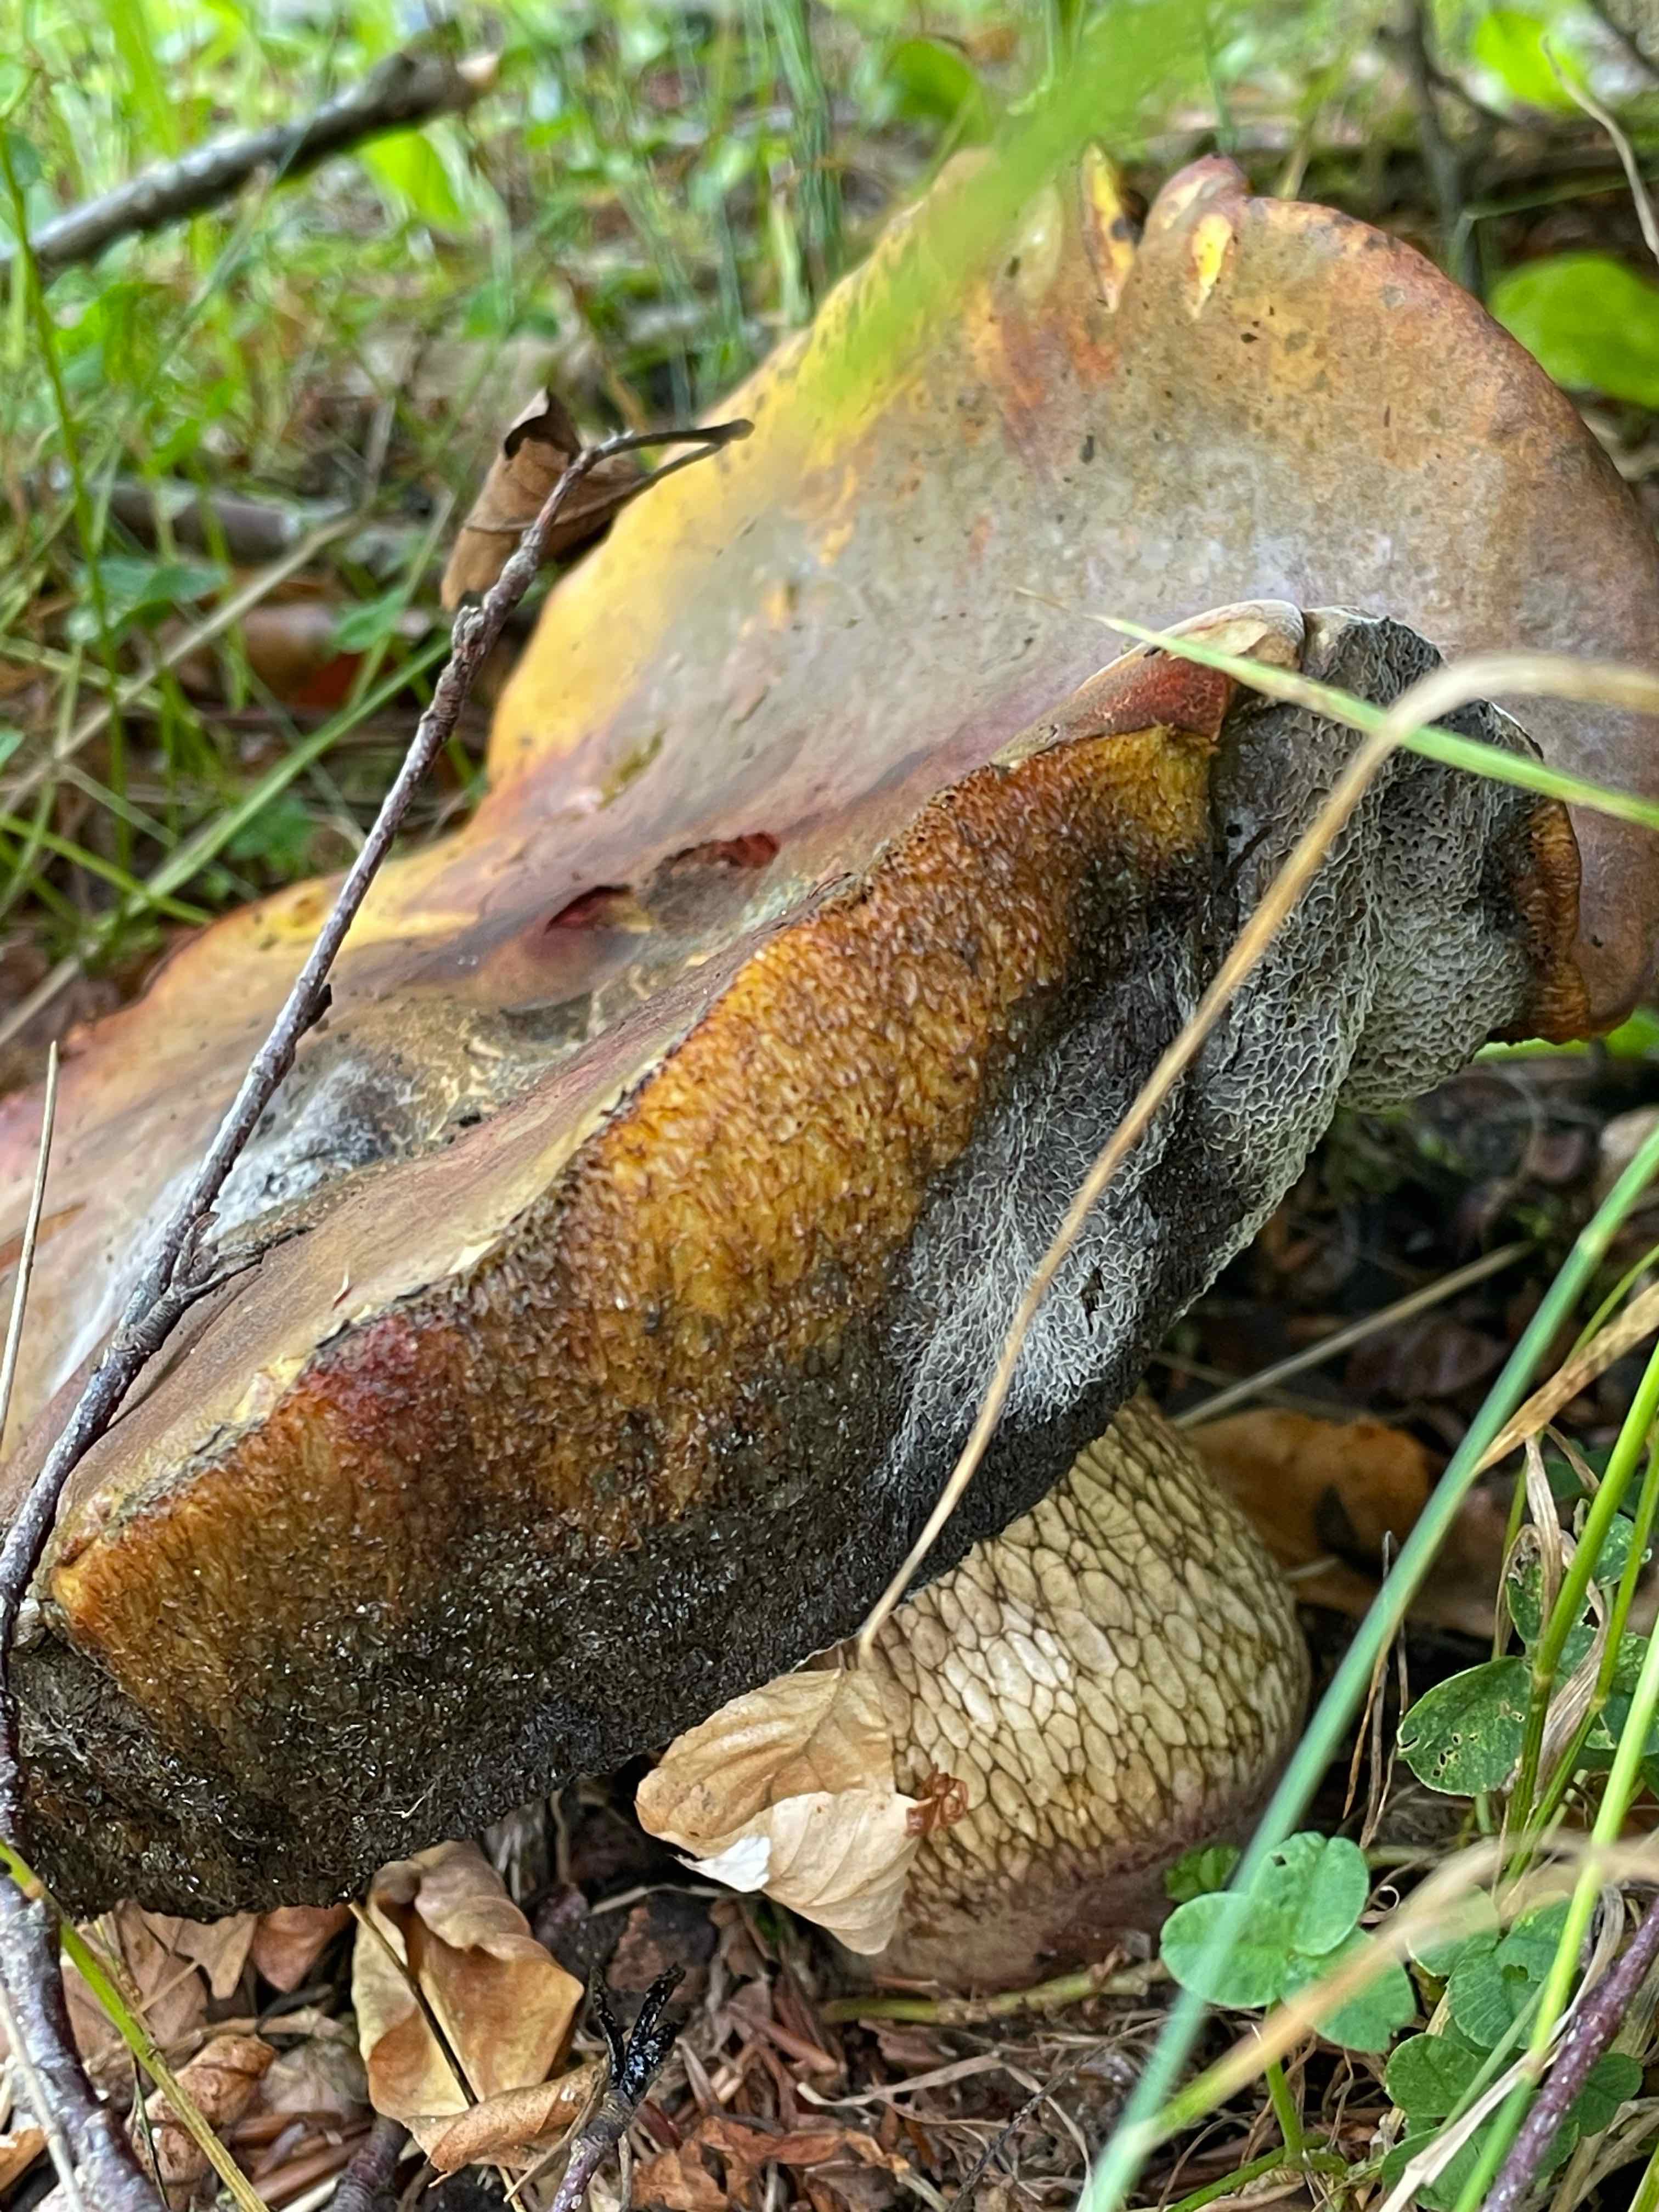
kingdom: Fungi
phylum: Basidiomycota
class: Agaricomycetes
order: Boletales
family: Boletaceae
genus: Suillellus
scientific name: Suillellus luridus
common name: netstokket indigorørhat
